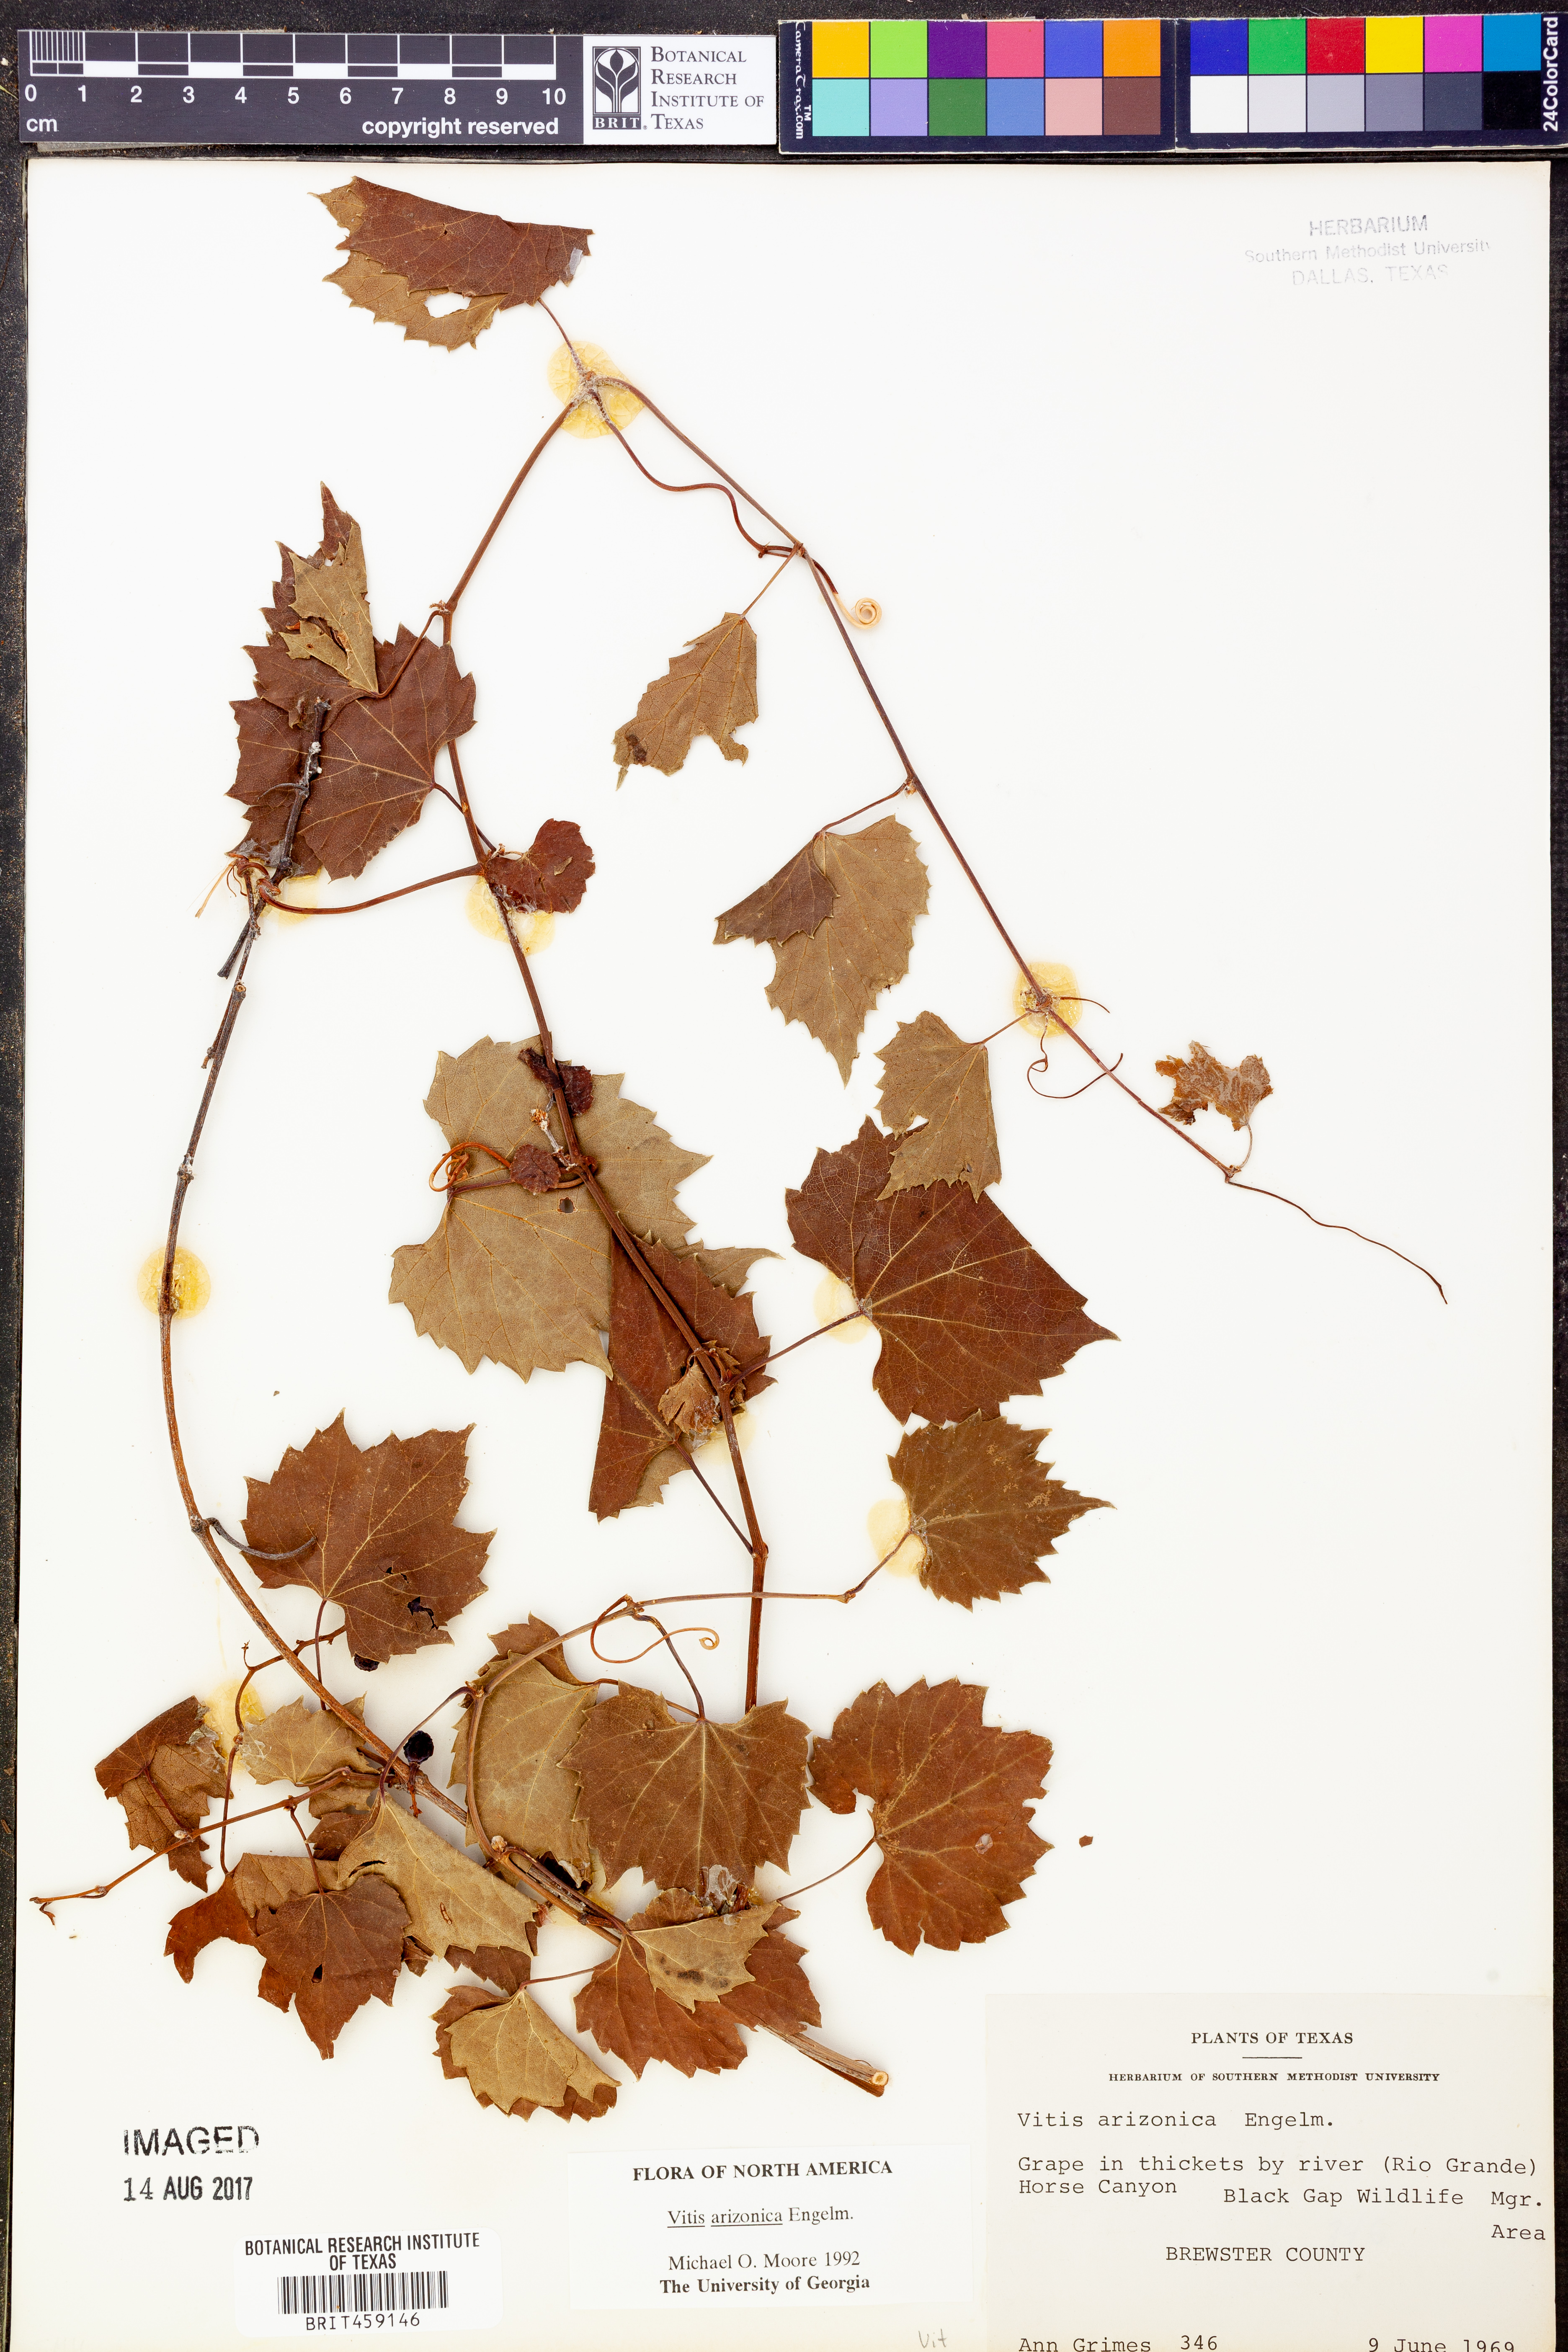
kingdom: Plantae
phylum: Tracheophyta
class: Magnoliopsida
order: Vitales
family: Vitaceae
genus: Vitis
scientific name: Vitis arizonica
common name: Canyon grape
